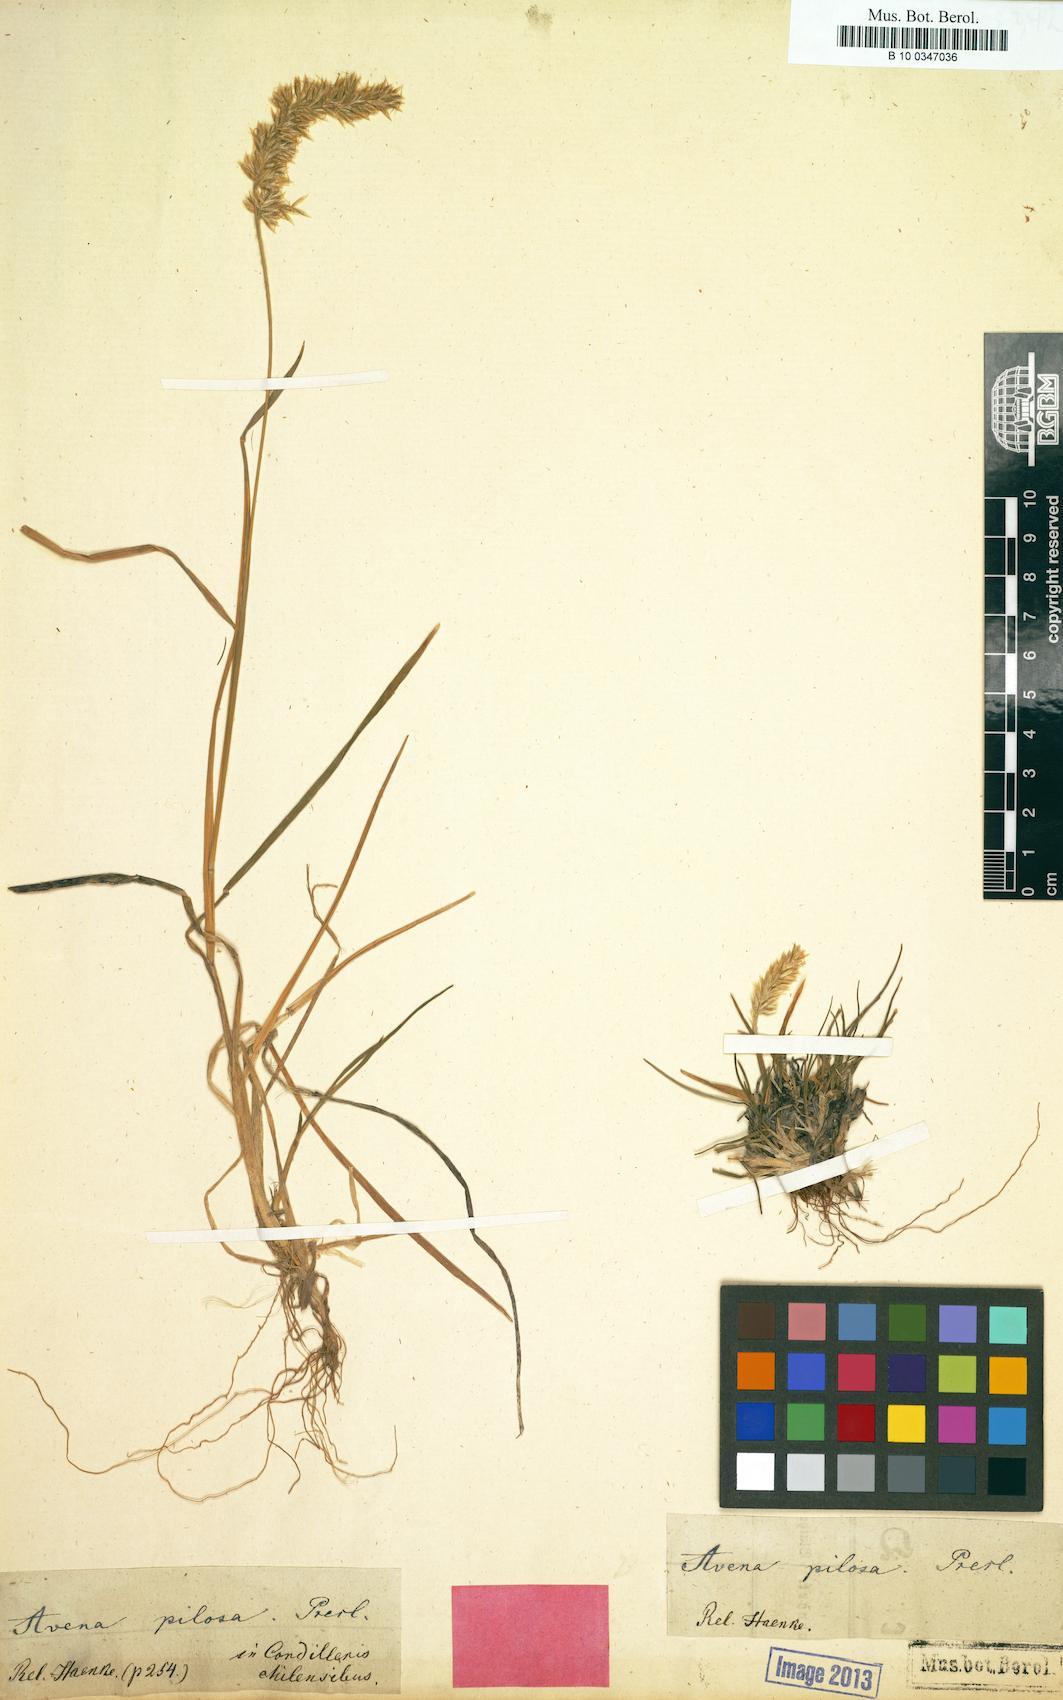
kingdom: Plantae
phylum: Tracheophyta
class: Liliopsida
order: Poales
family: Poaceae
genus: Koeleria
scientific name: Koeleria preslii
